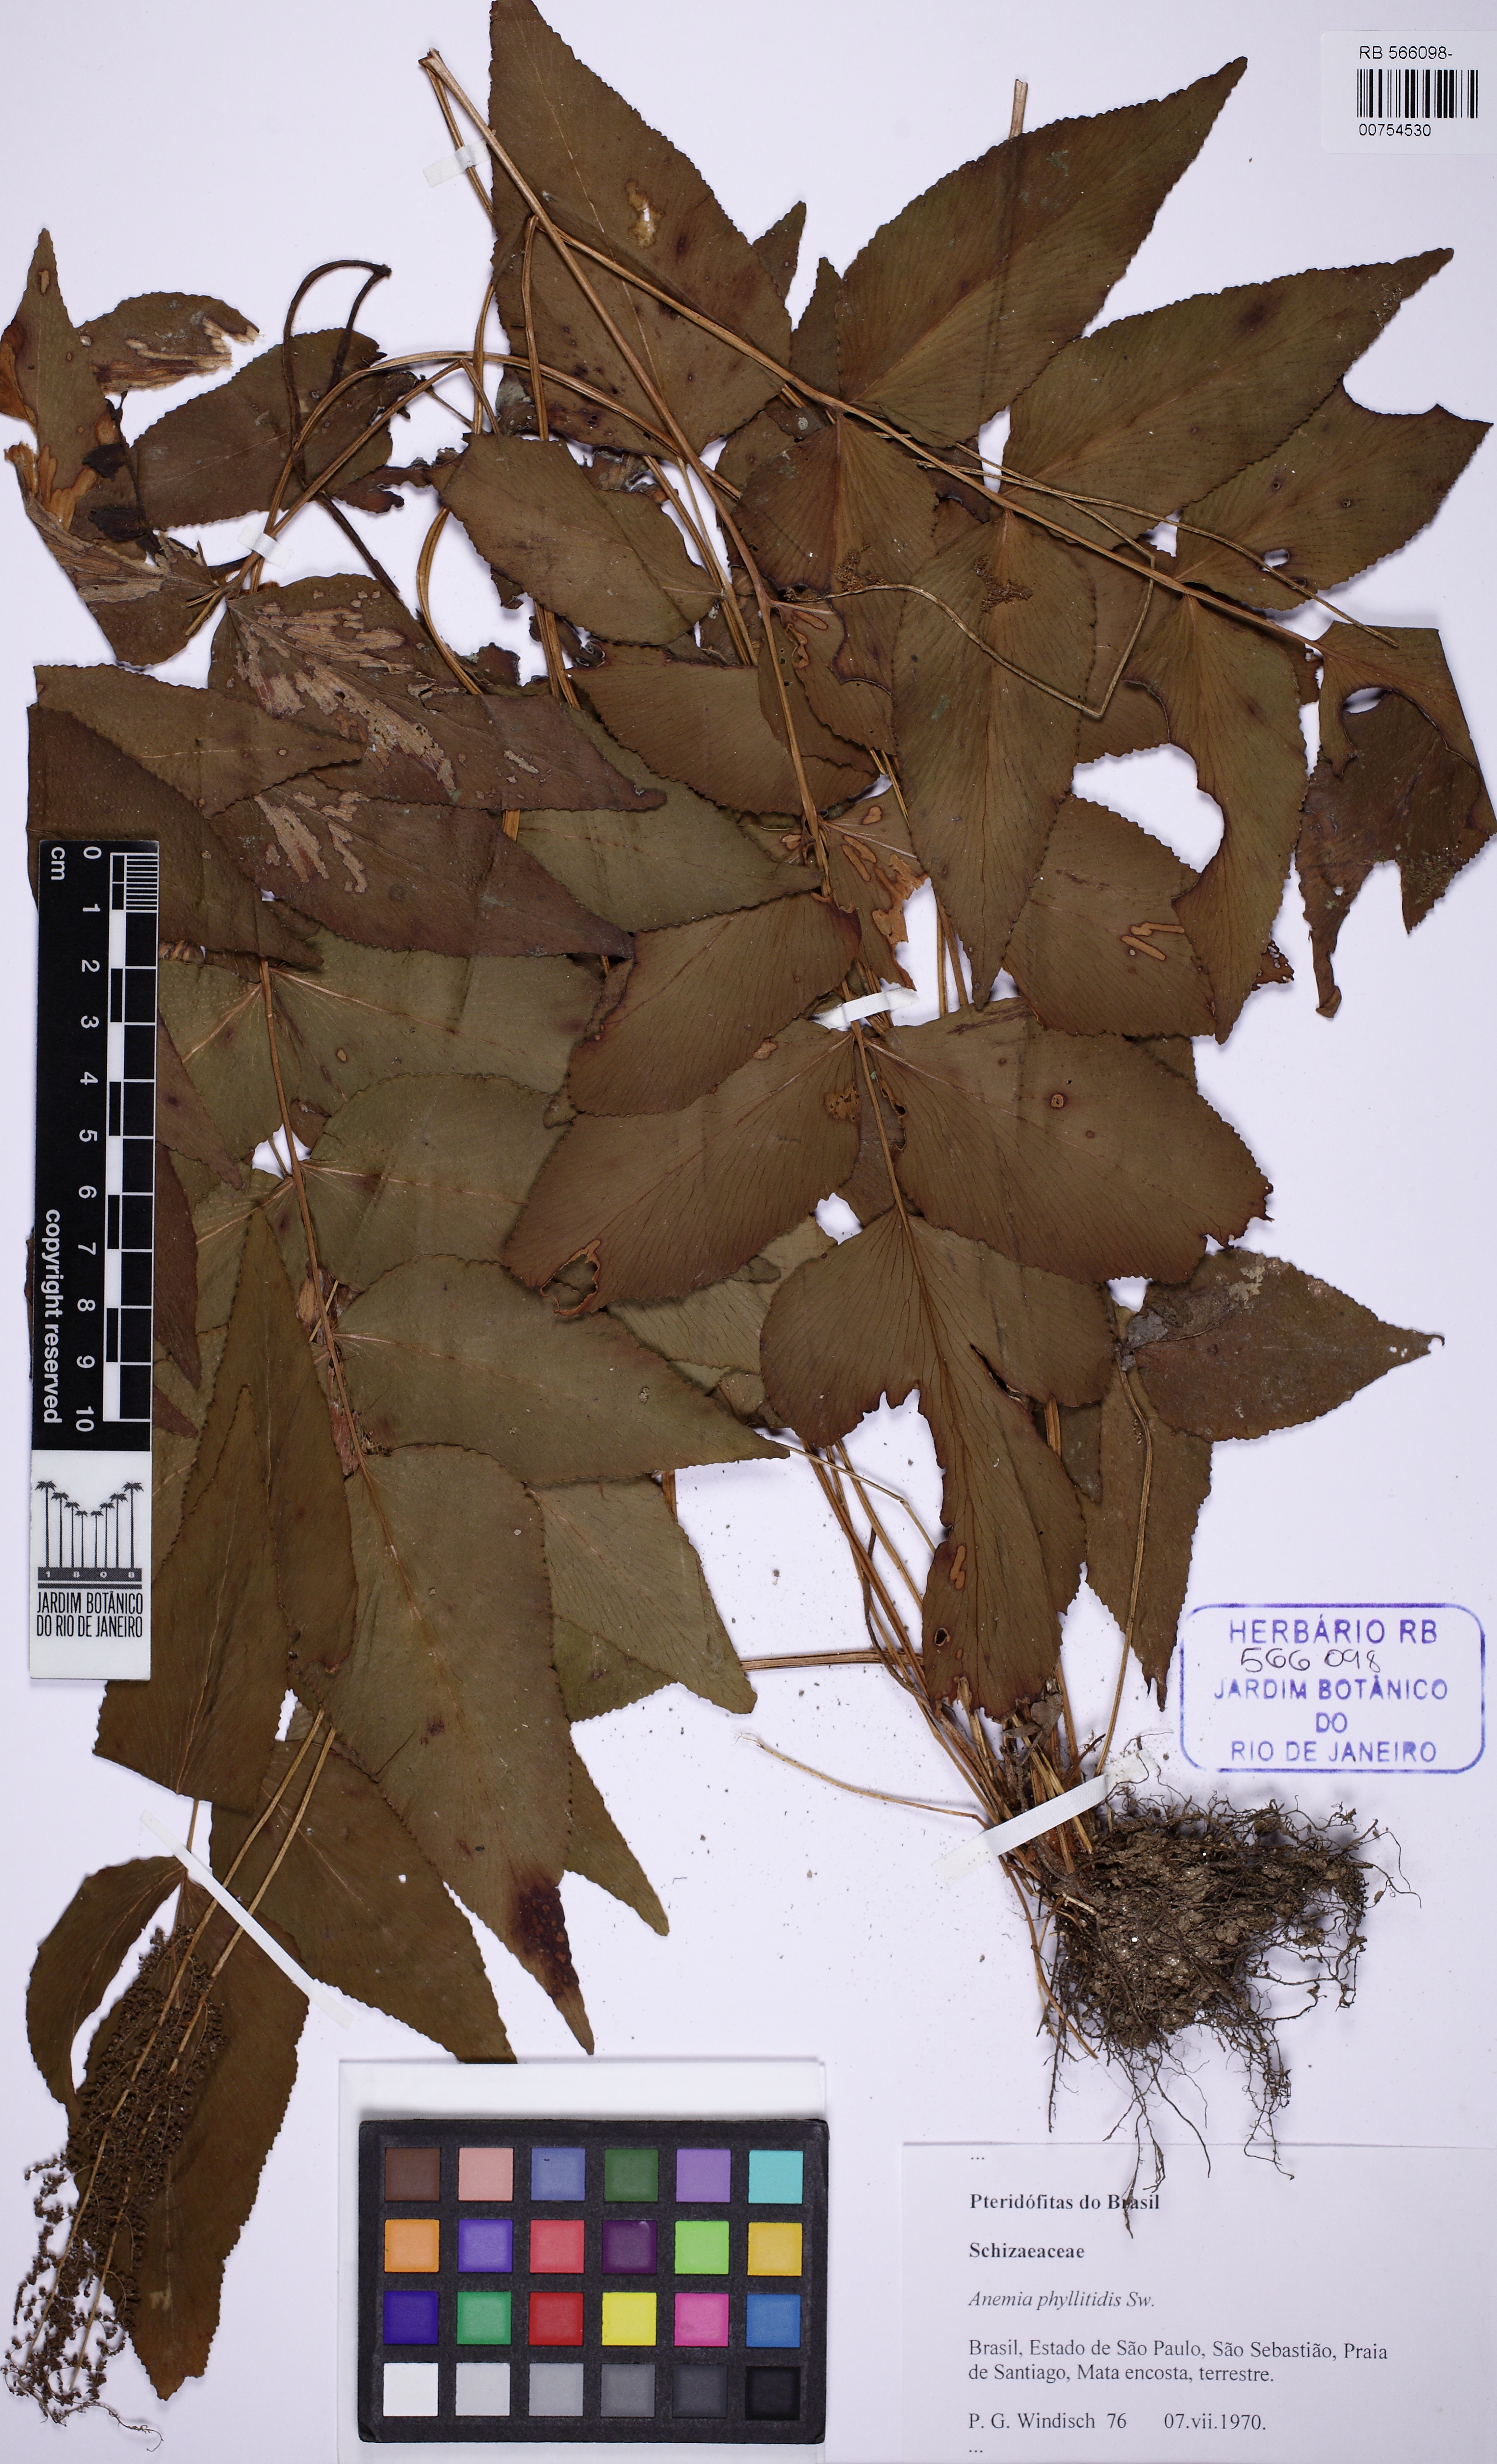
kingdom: Plantae
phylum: Tracheophyta
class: Polypodiopsida
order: Schizaeales
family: Anemiaceae
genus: Anemia
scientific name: Anemia phyllitidis
